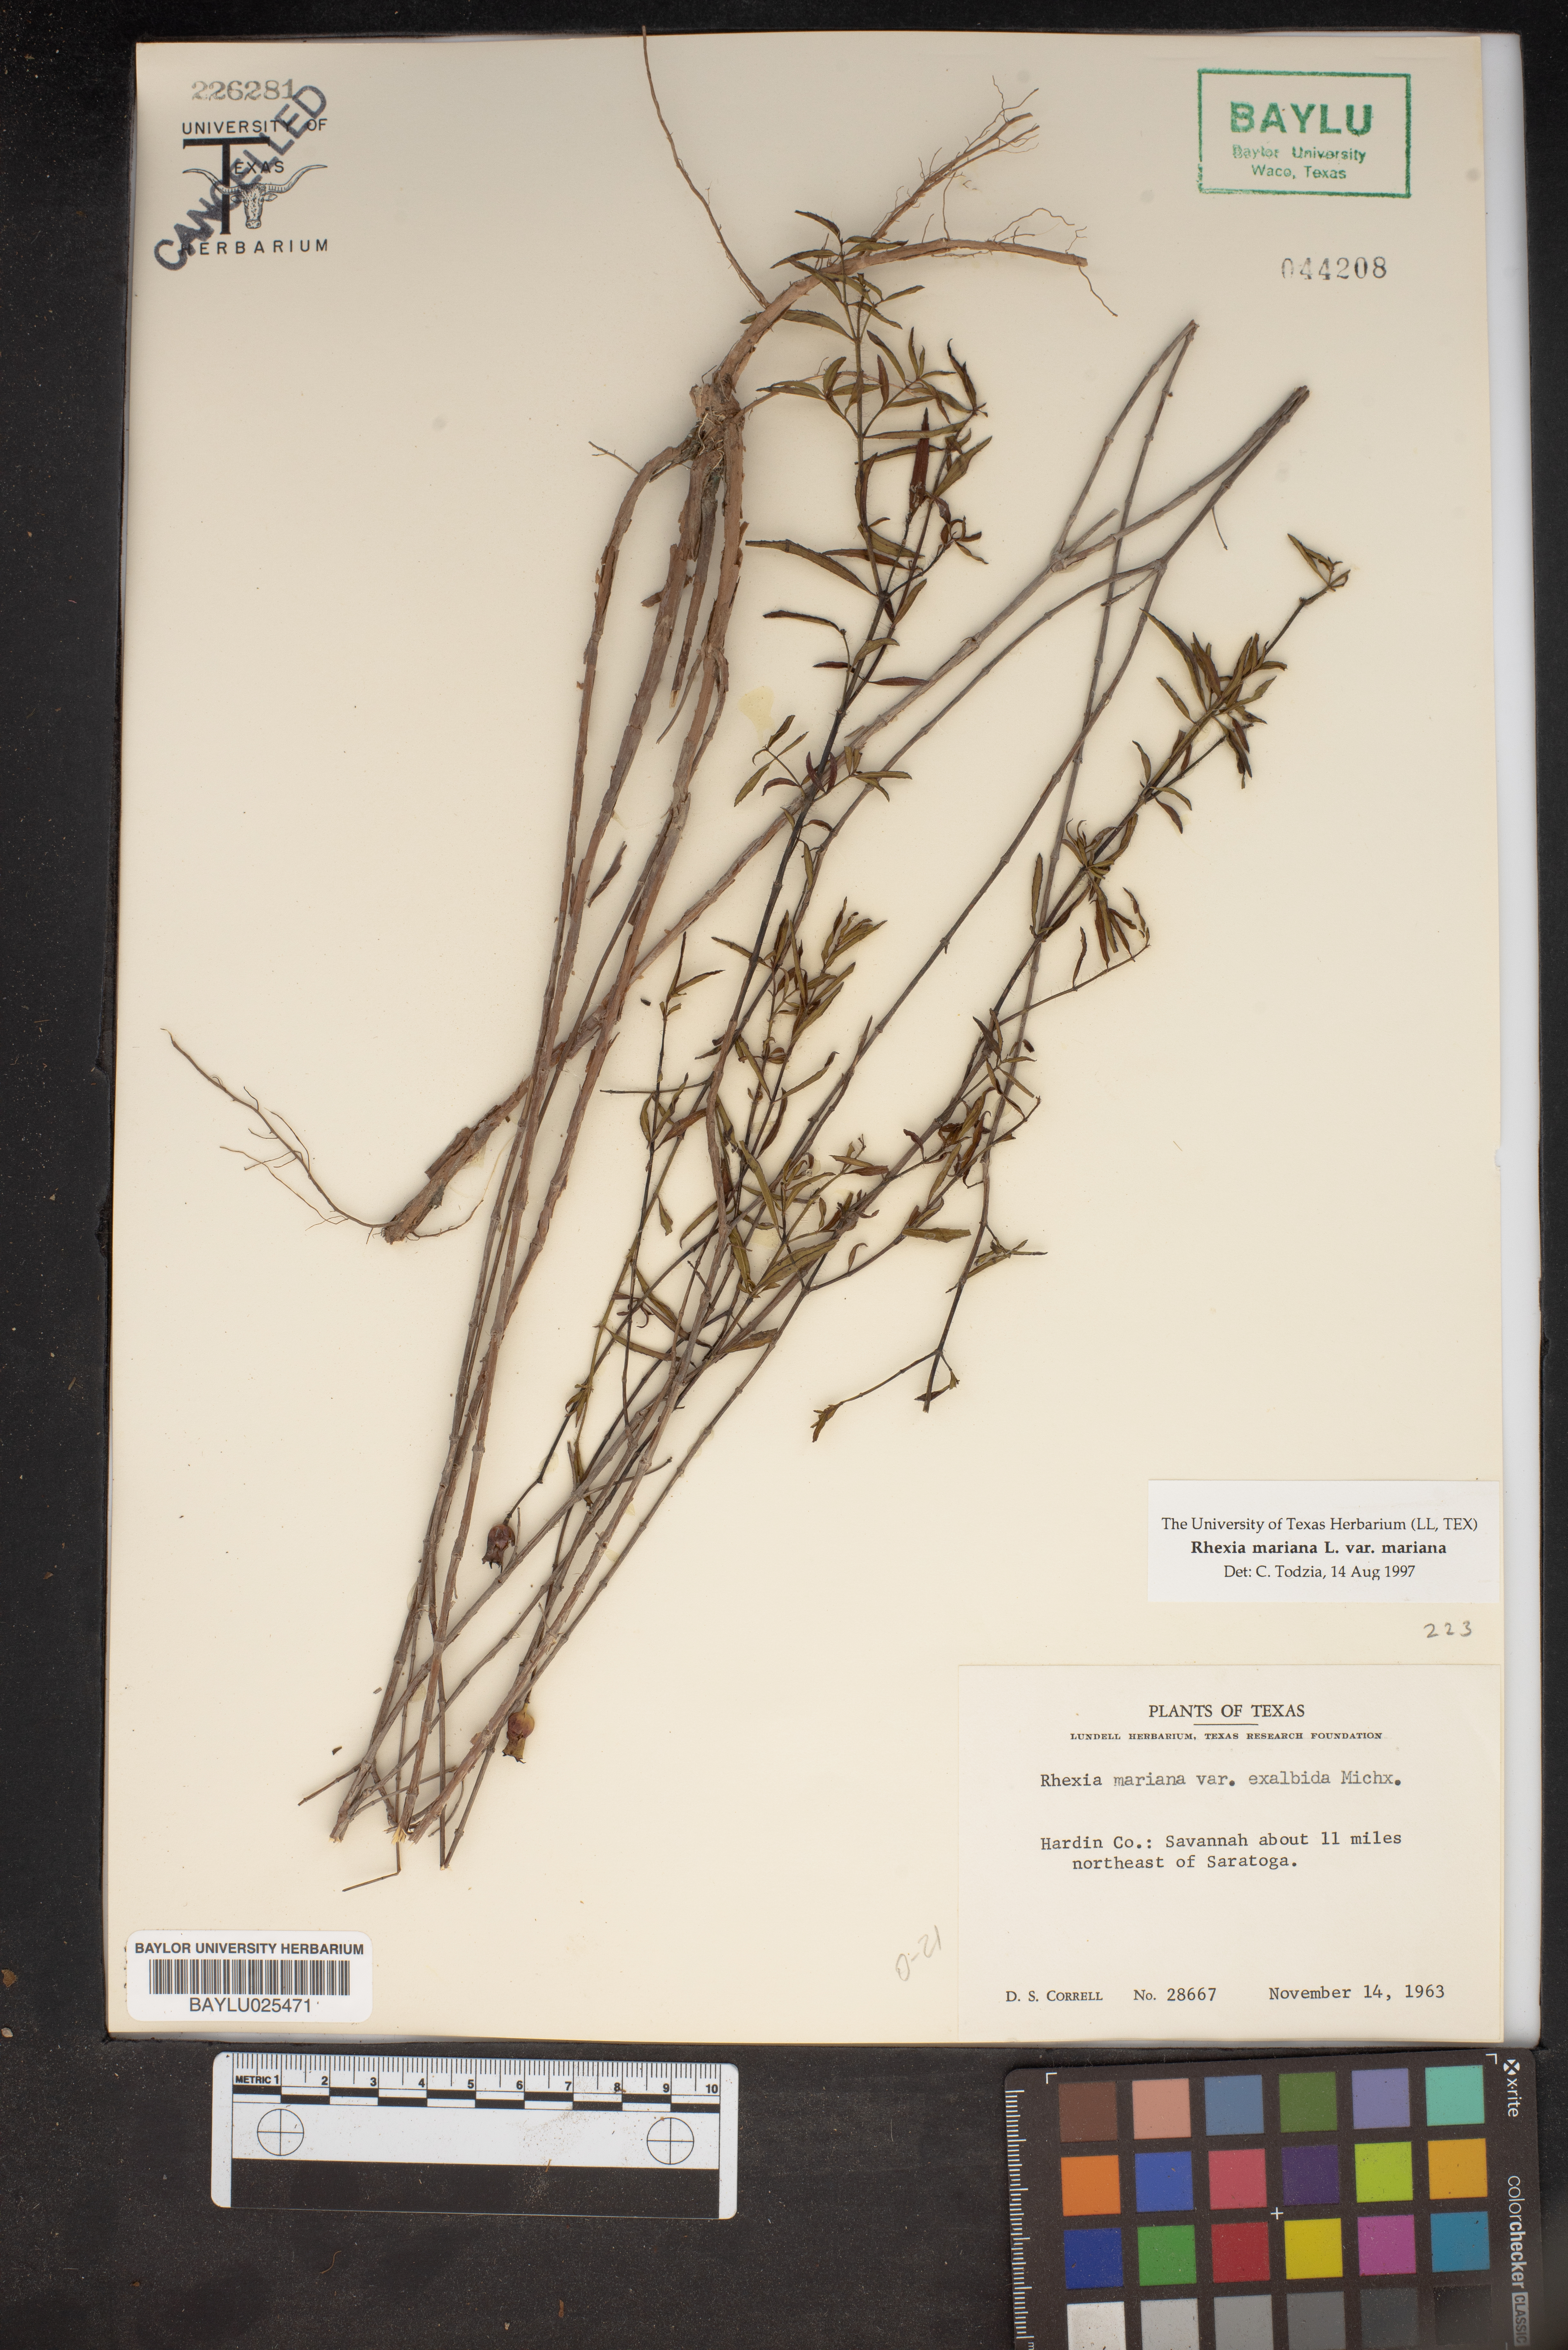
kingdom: Plantae
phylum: Tracheophyta
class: Magnoliopsida
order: Myrtales
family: Melastomataceae
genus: Rhexia
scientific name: Rhexia mariana
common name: Dull meadow-pitcher
